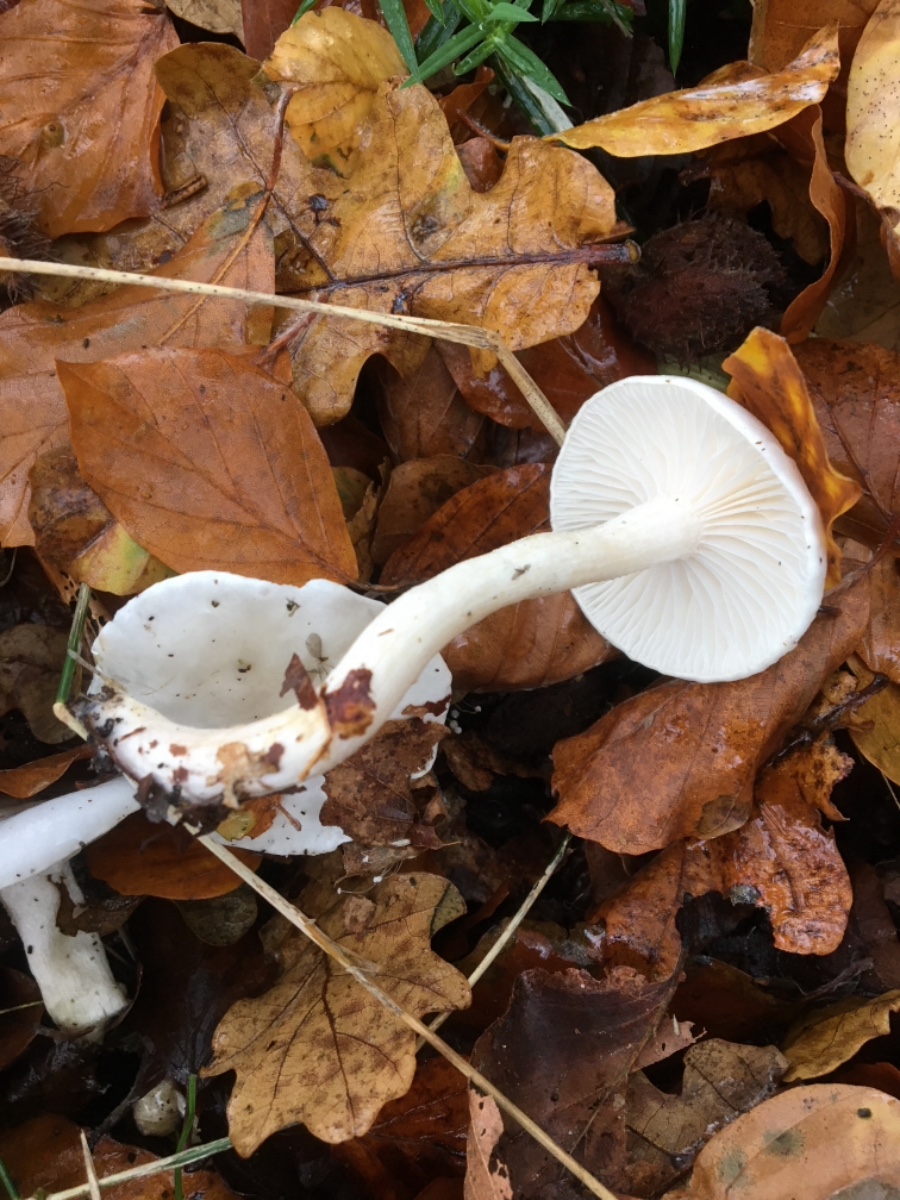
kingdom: Fungi
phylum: Basidiomycota
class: Agaricomycetes
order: Agaricales
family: Hygrophoraceae
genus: Hygrophorus
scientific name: Hygrophorus eburneus
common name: elfenbens-sneglehat
